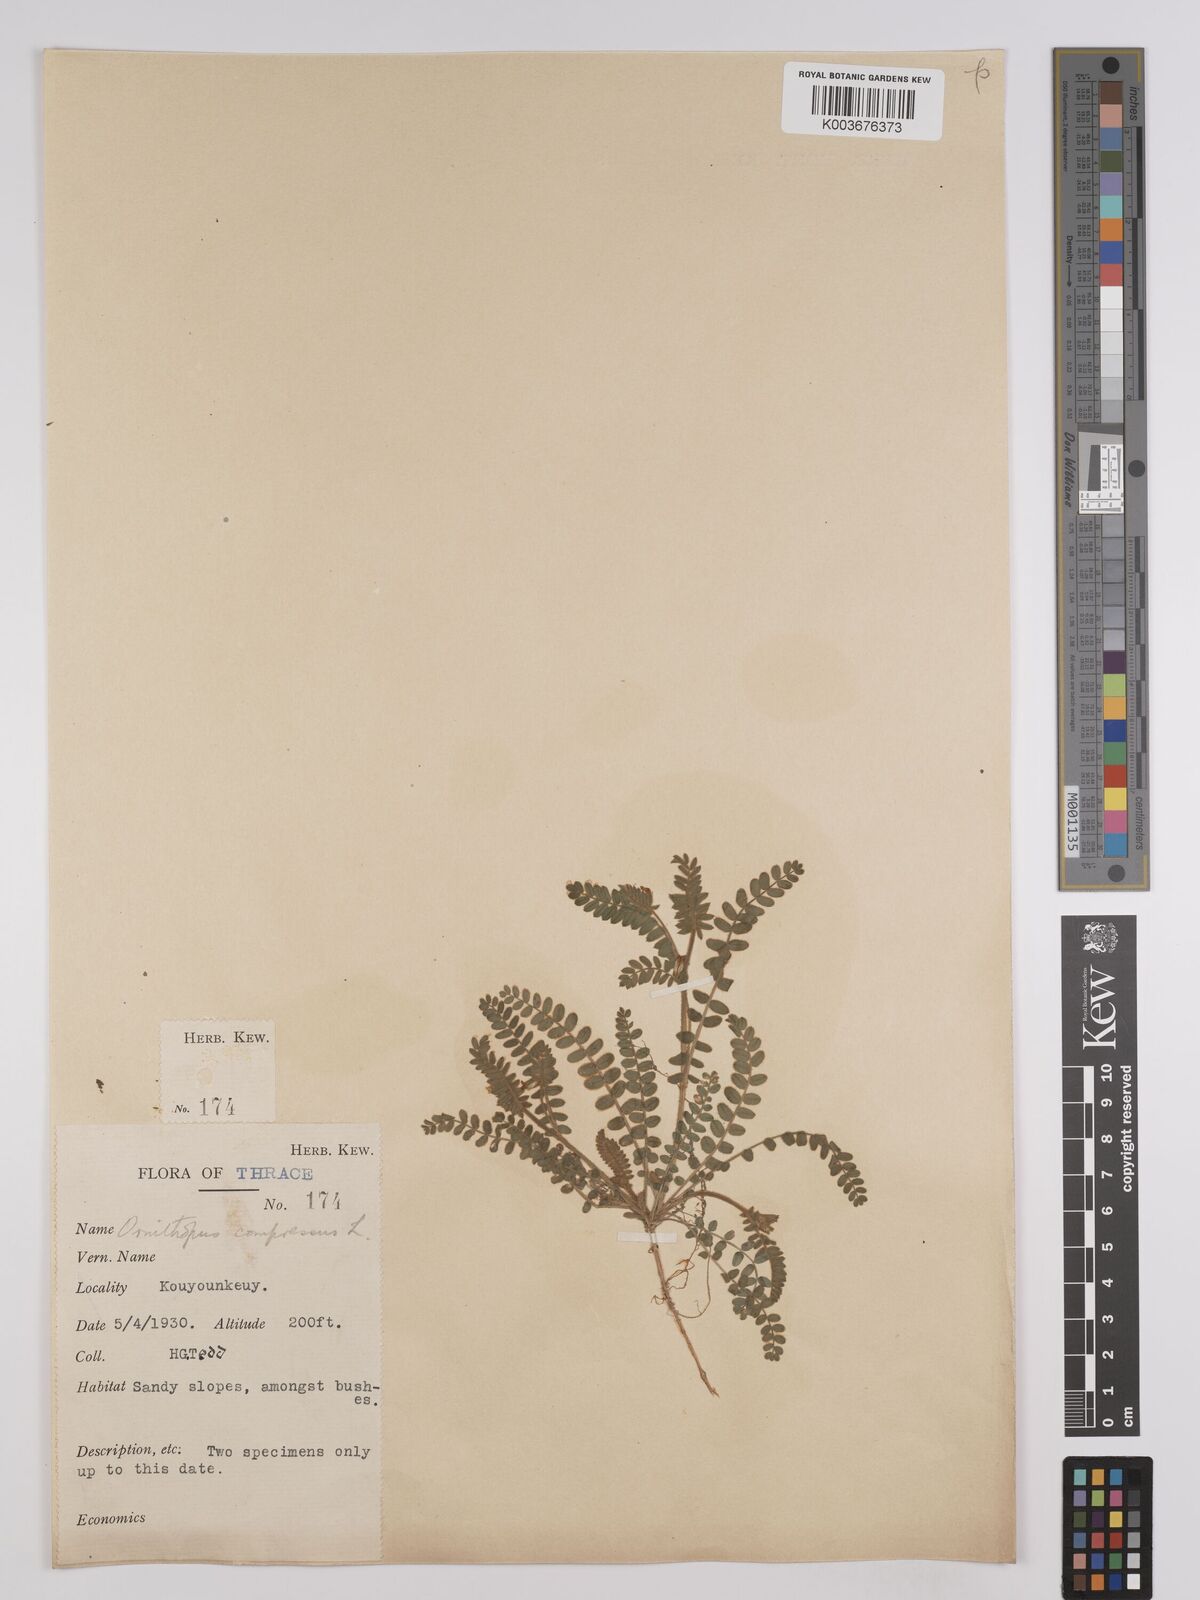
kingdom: Plantae
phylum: Tracheophyta
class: Magnoliopsida
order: Fabales
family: Fabaceae
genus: Ornithopus
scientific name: Ornithopus compressus
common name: Yellow serradella
